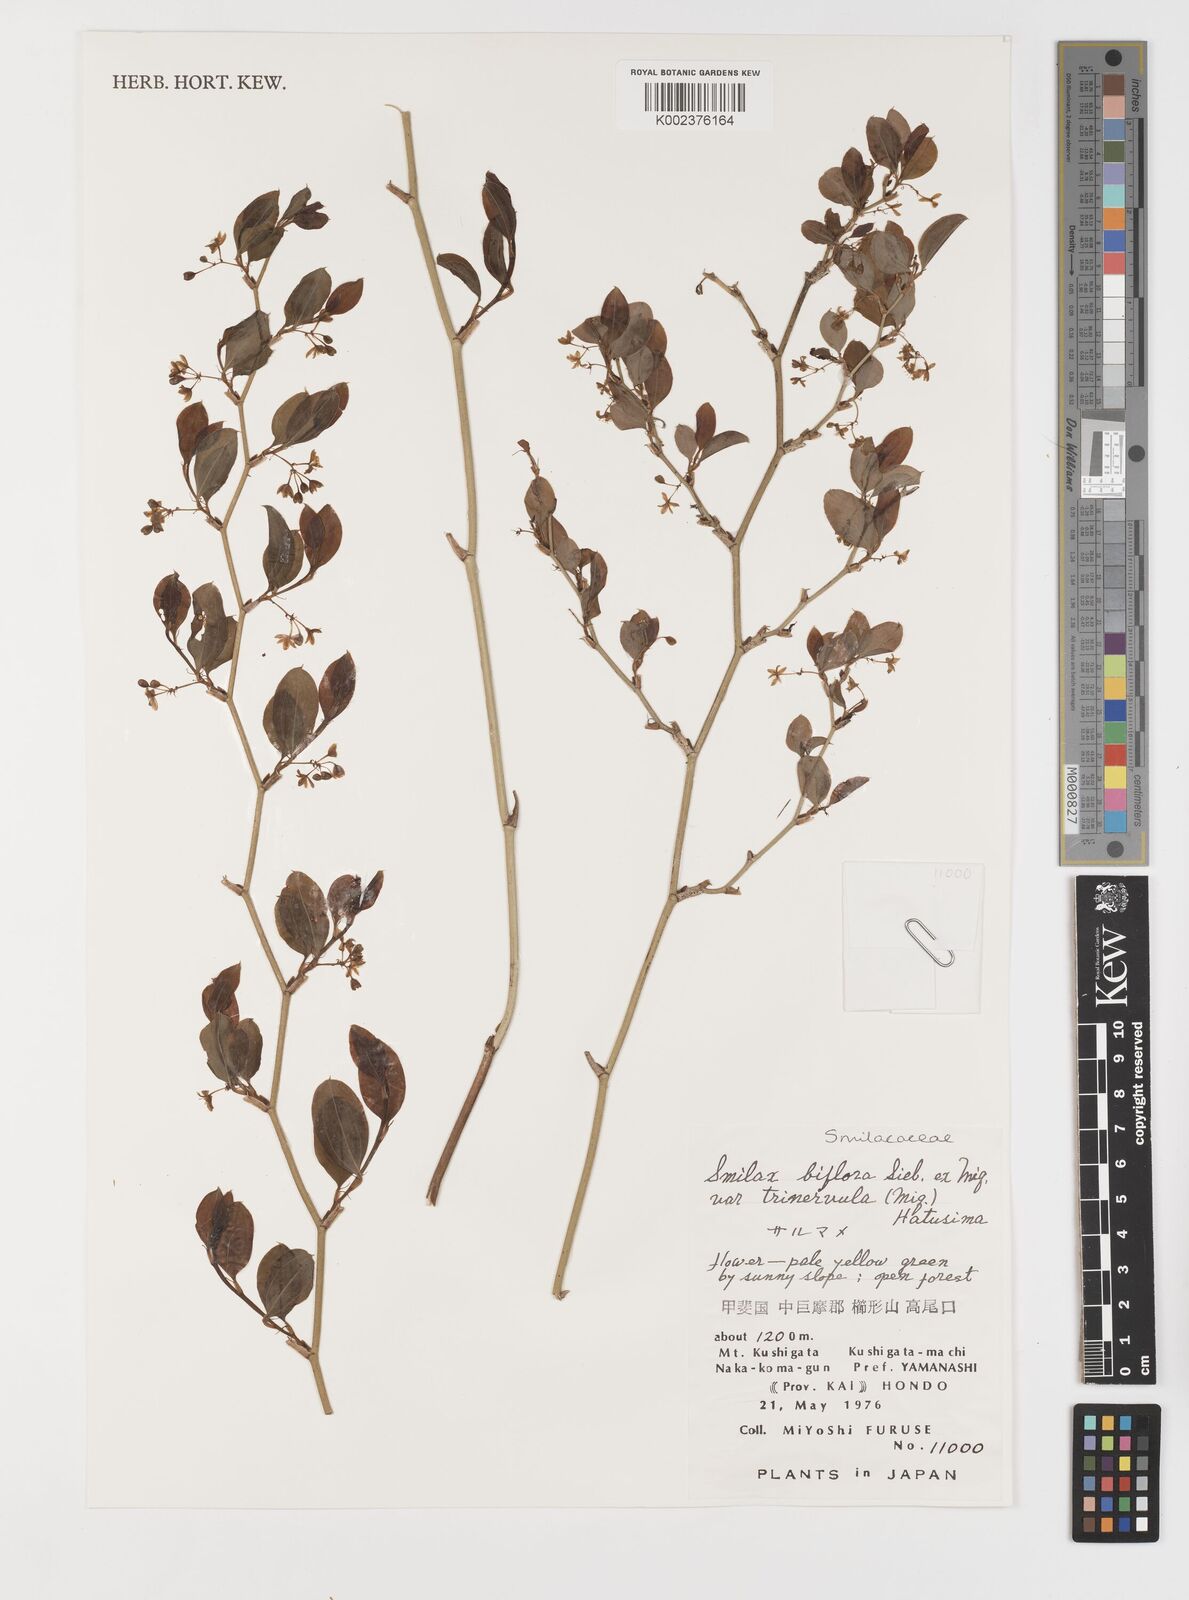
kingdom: Plantae
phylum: Tracheophyta
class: Liliopsida
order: Liliales
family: Smilacaceae
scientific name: Smilacaceae
